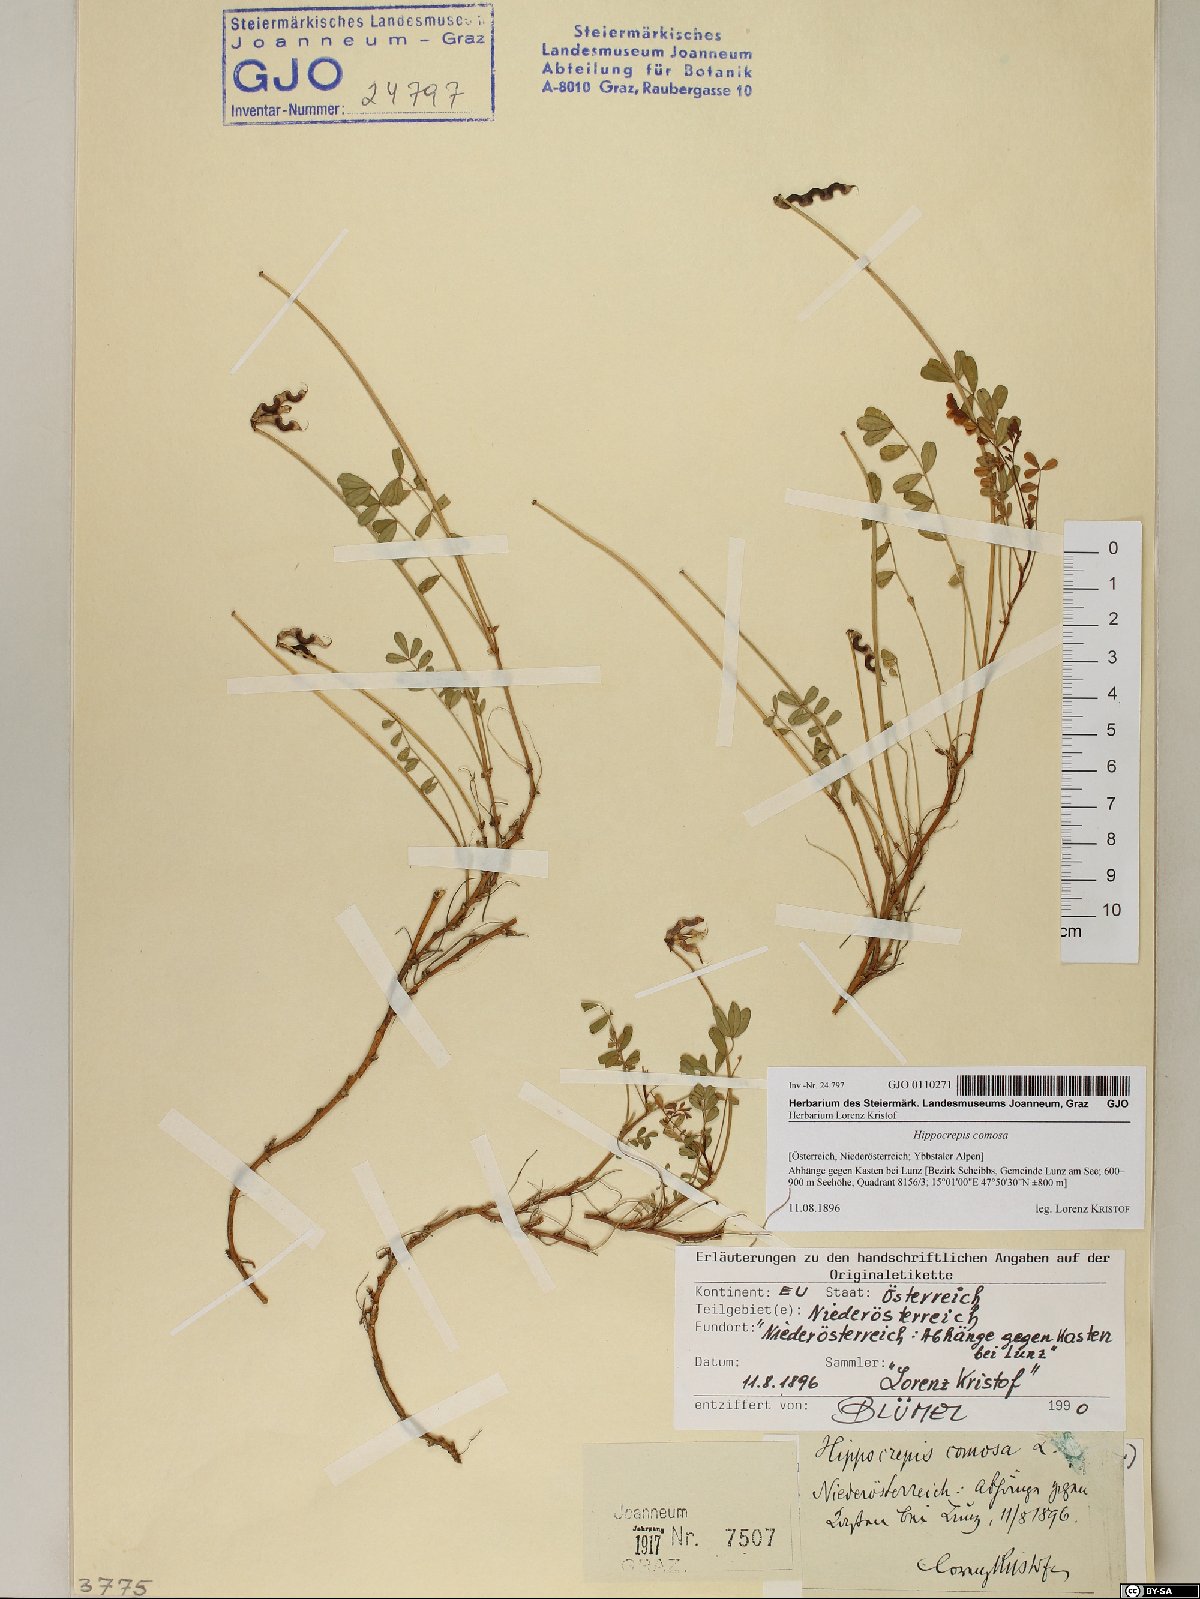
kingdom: Plantae
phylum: Tracheophyta
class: Magnoliopsida
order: Fabales
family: Fabaceae
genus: Hippocrepis
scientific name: Hippocrepis comosa
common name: Horseshoe vetch
